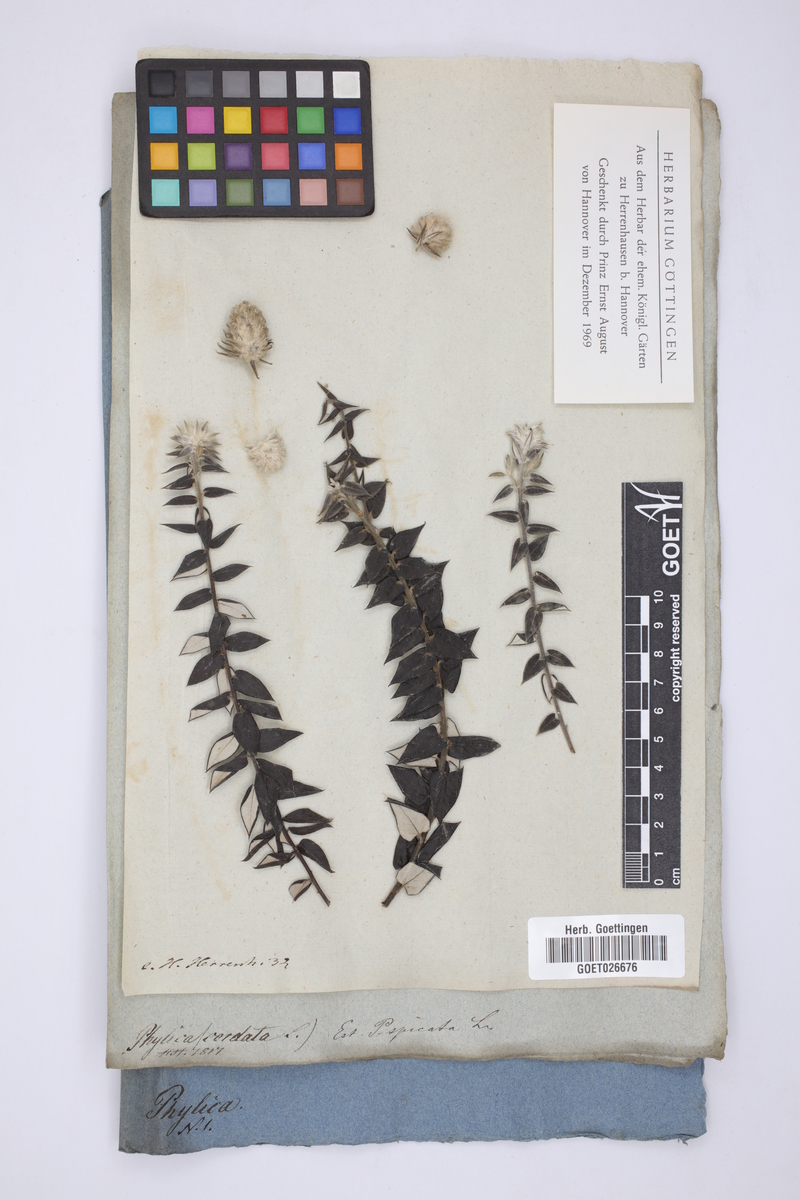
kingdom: Plantae
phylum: Tracheophyta
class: Magnoliopsida
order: Rosales
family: Rhamnaceae
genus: Phylica
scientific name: Phylica spicata
